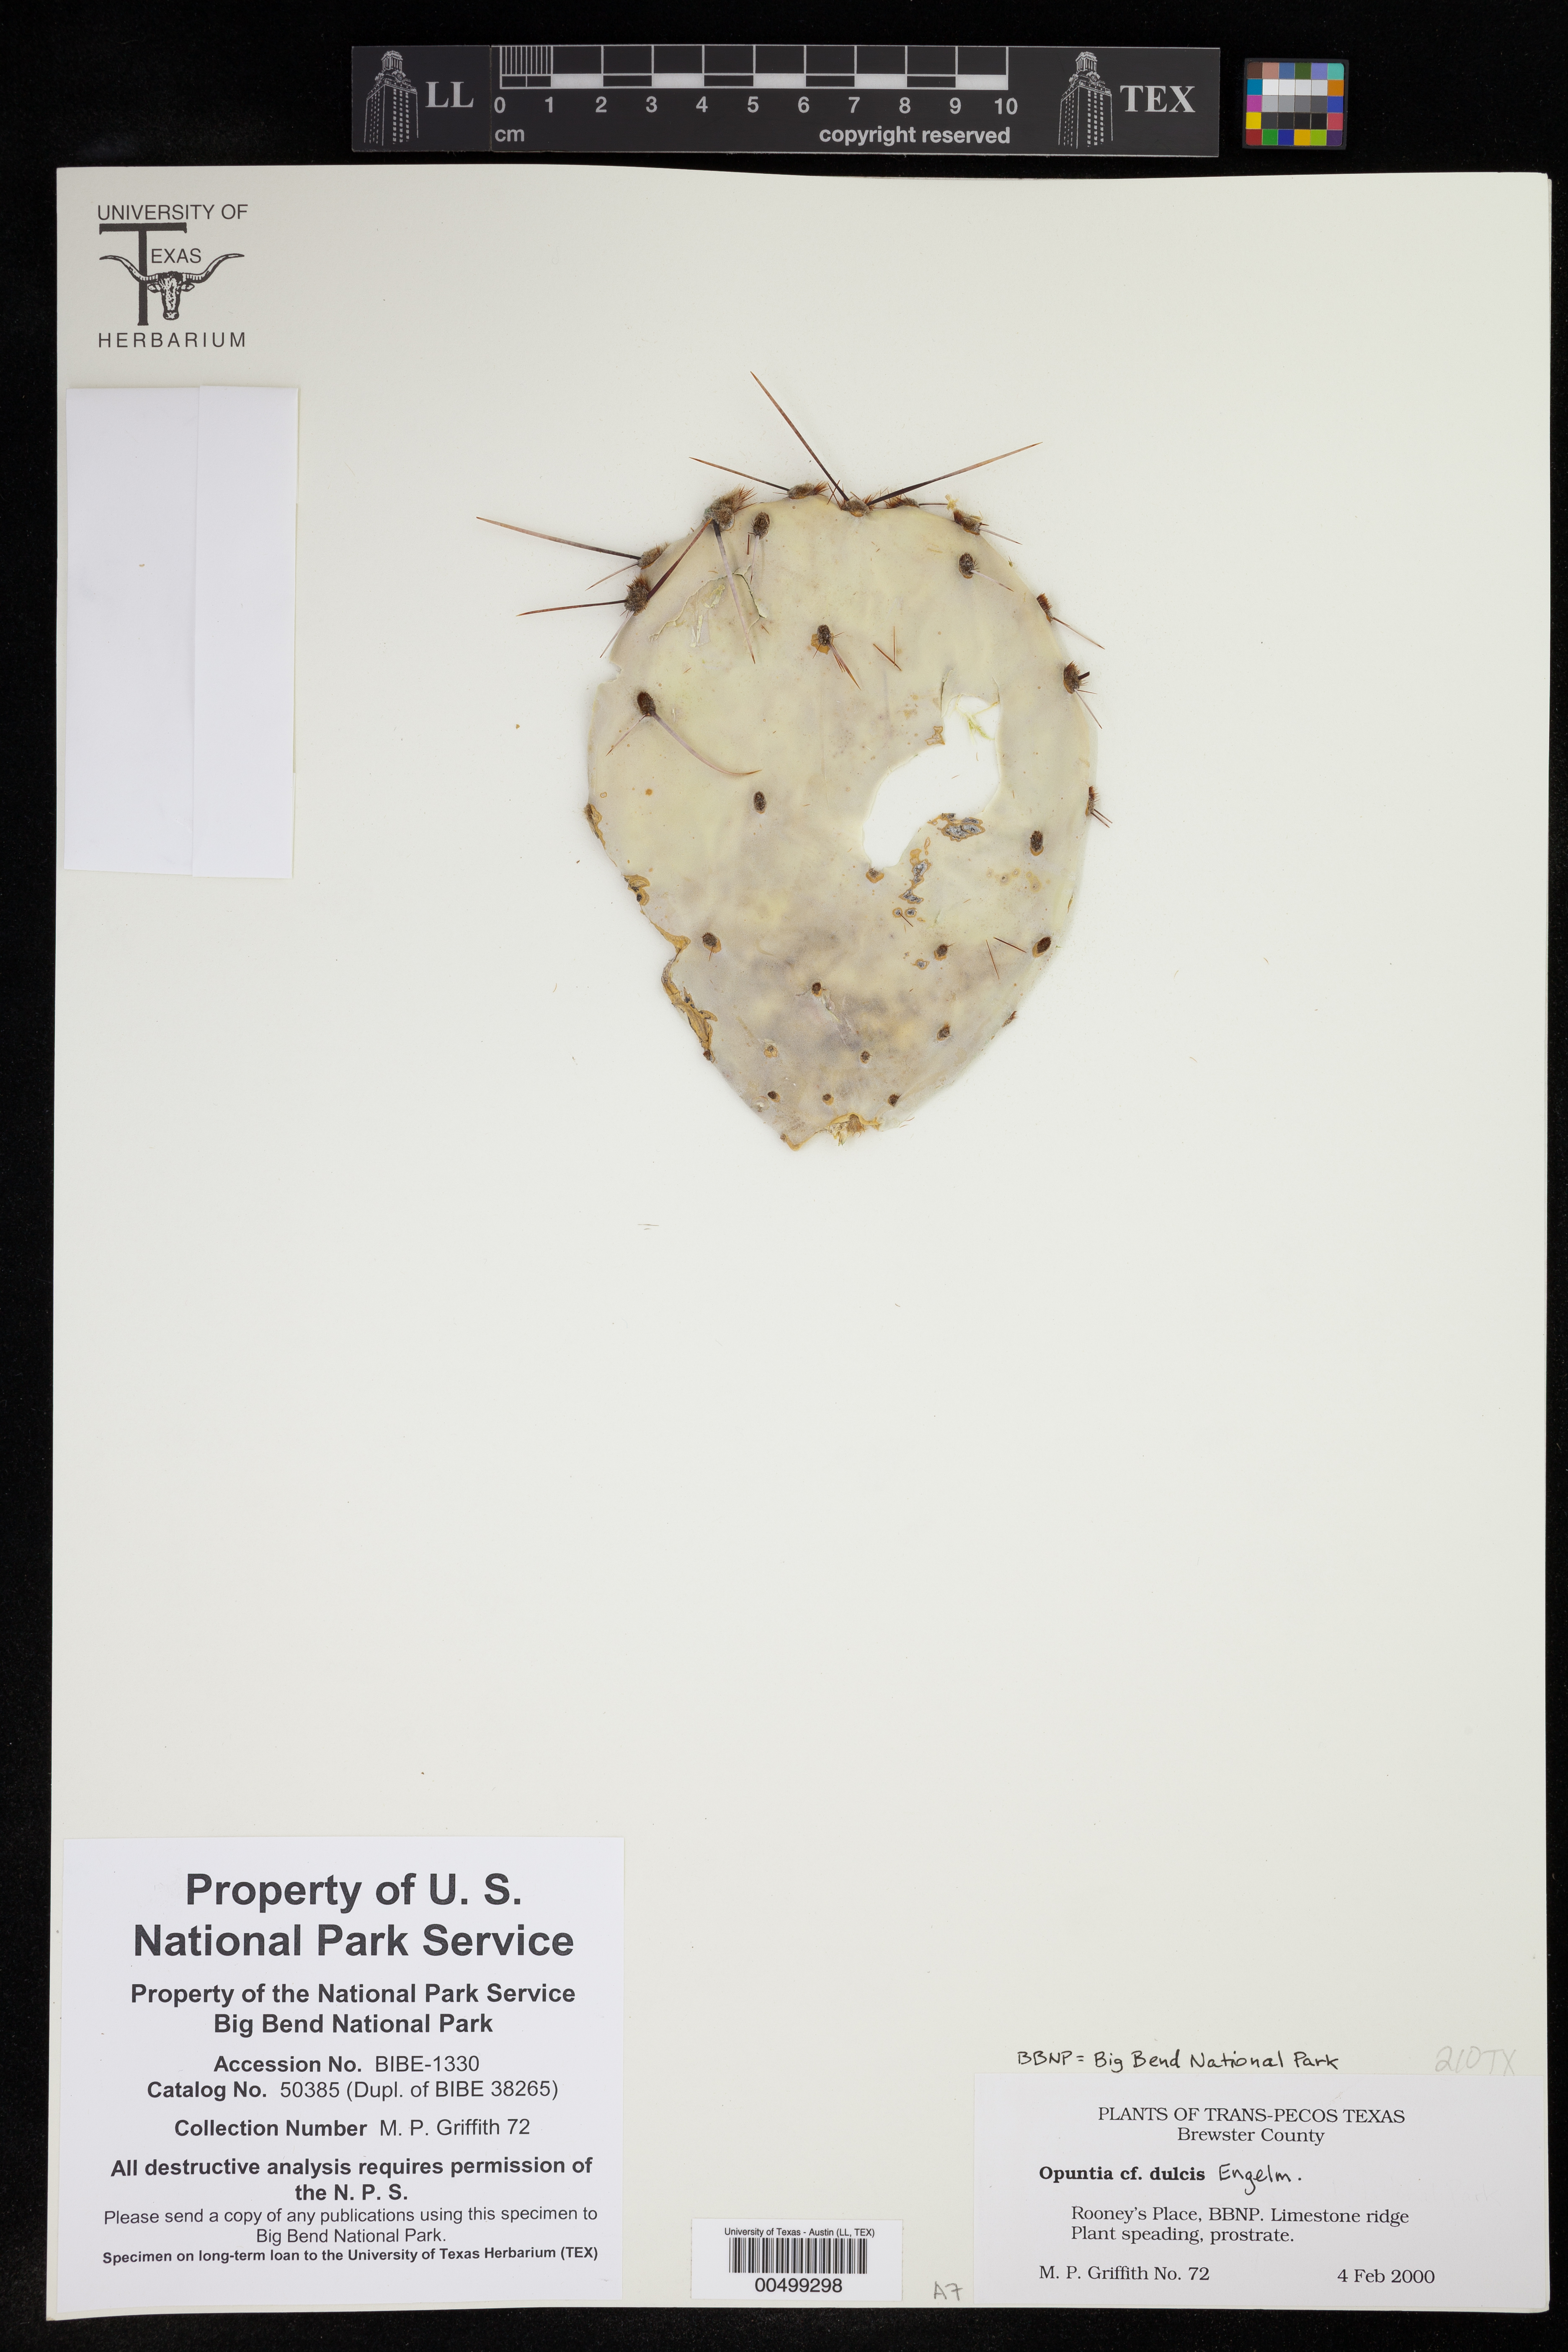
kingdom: Plantae
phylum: Tracheophyta
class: Magnoliopsida
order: Caryophyllales
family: Cactaceae
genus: Opuntia
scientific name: Opuntia engelmannii
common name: Cactus-apple
